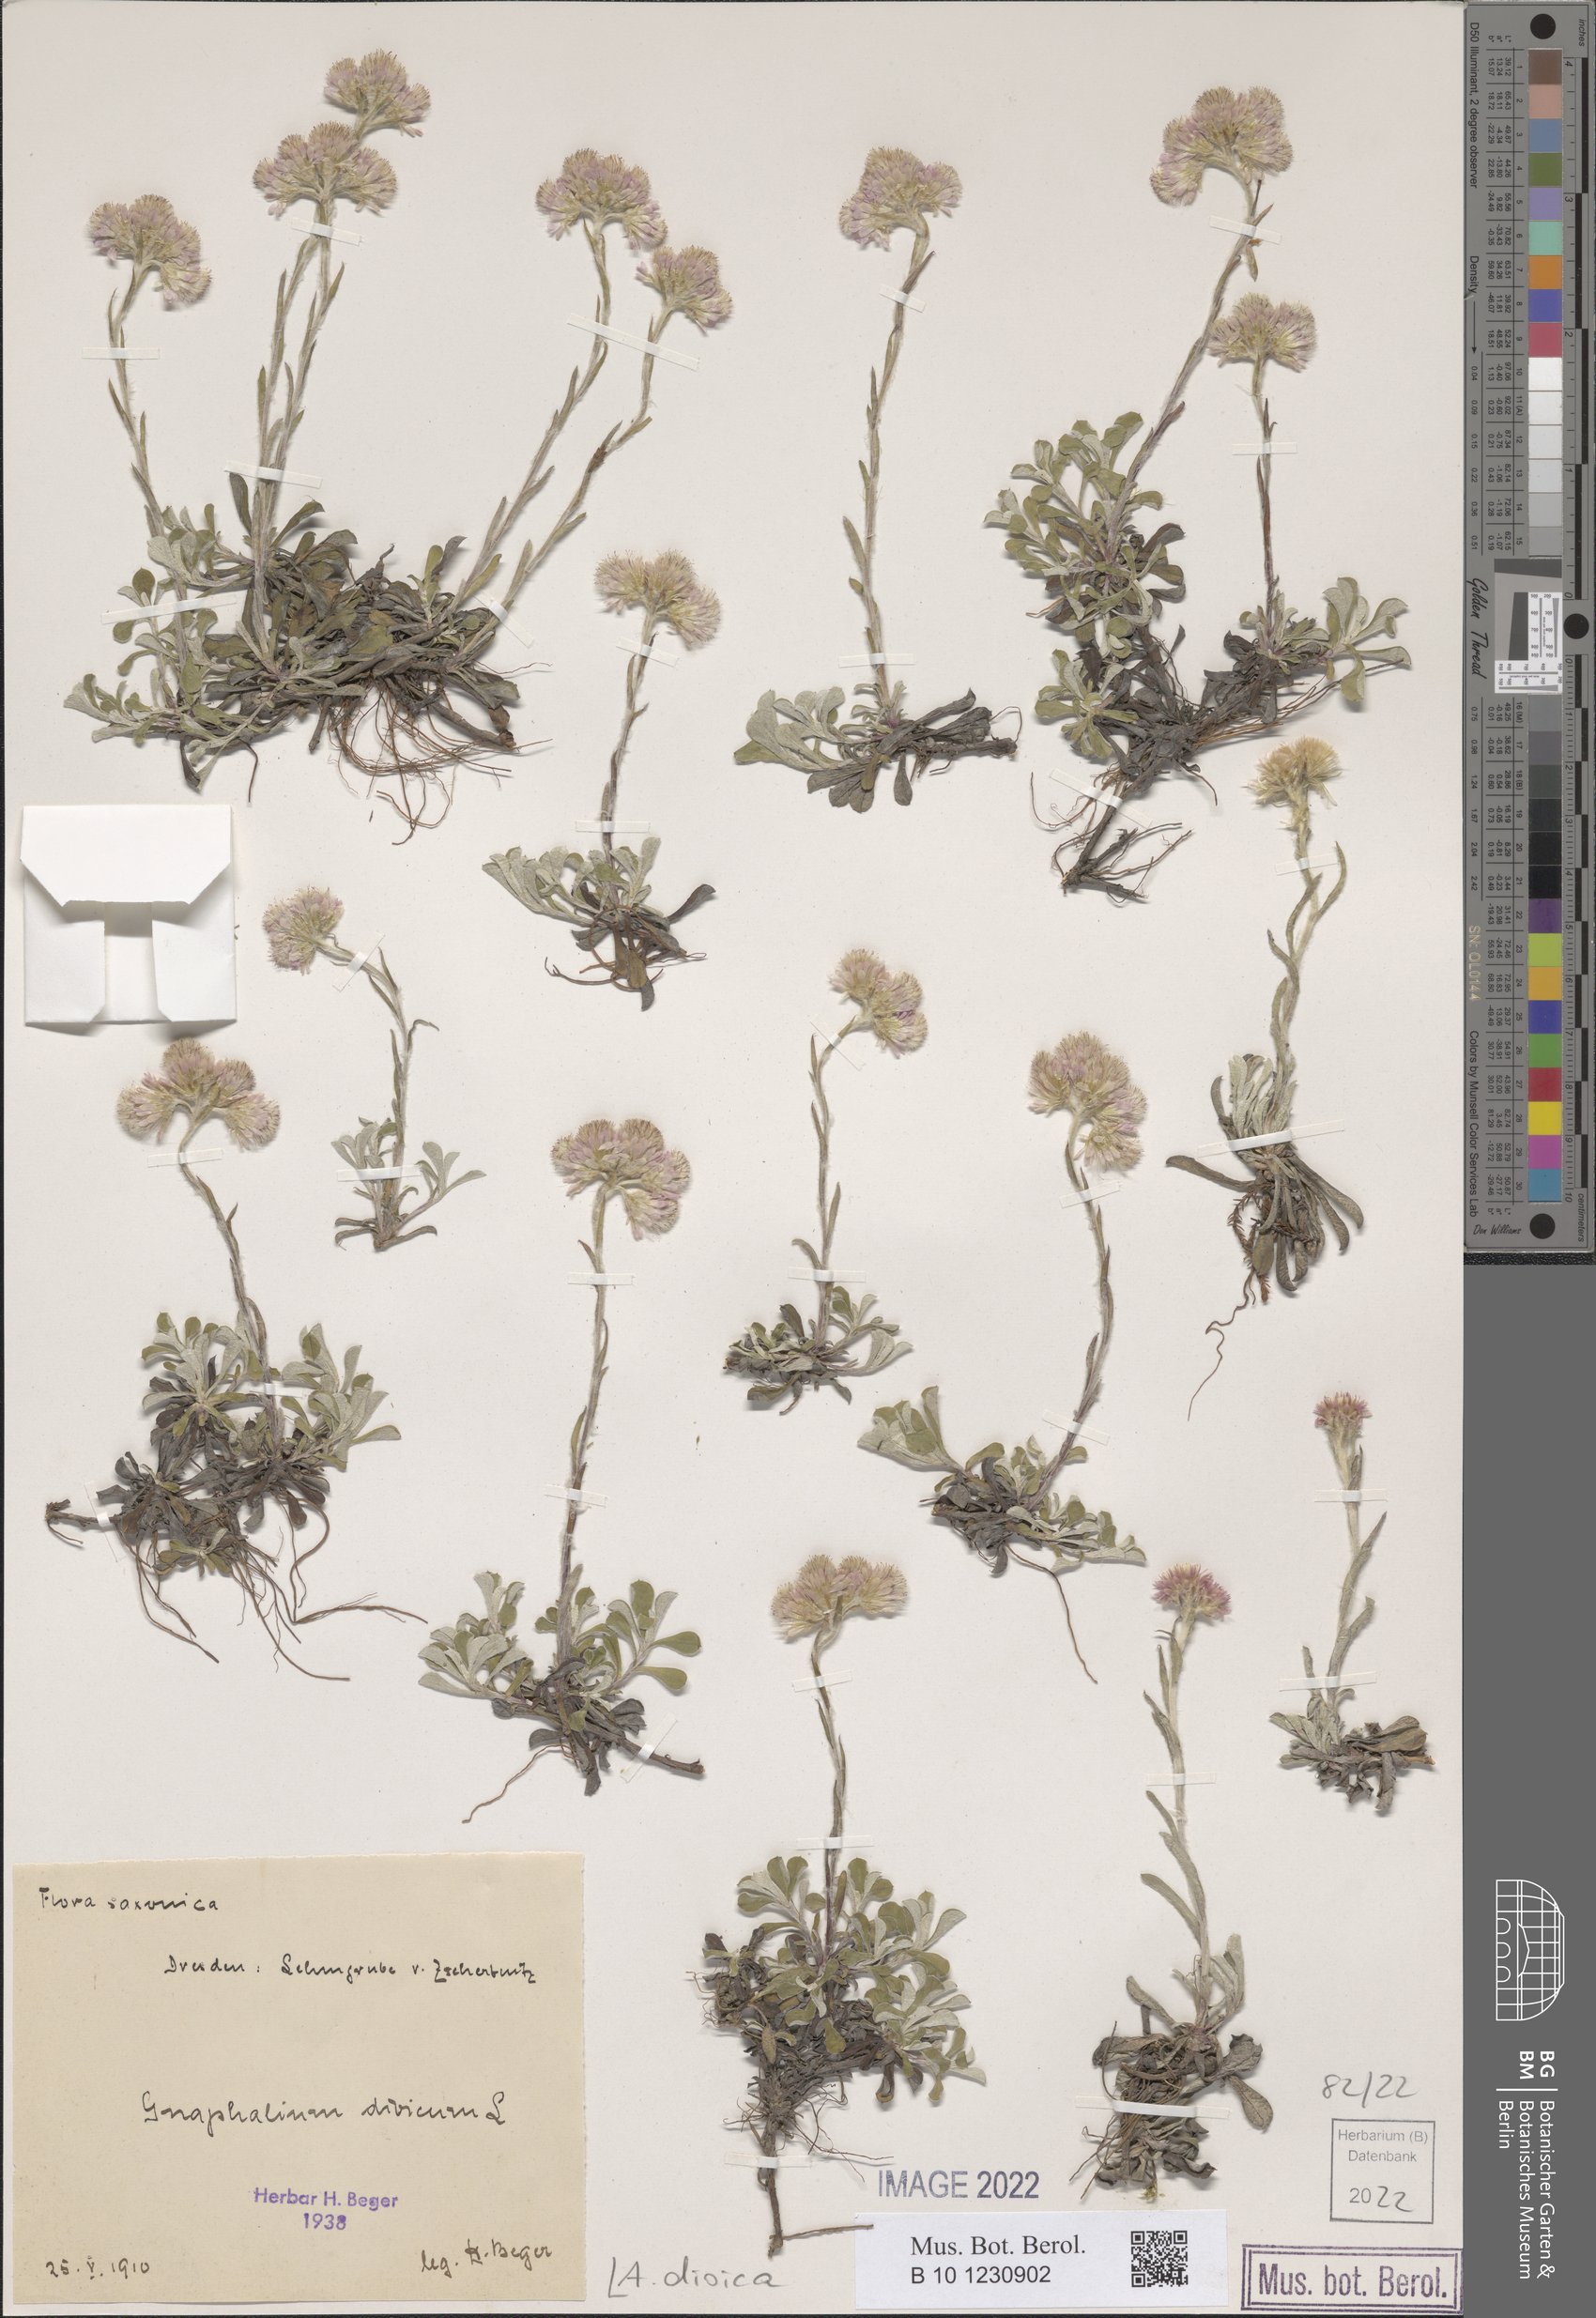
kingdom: Plantae
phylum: Tracheophyta
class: Magnoliopsida
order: Asterales
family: Asteraceae
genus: Antennaria
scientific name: Antennaria dioica
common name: Mountain everlasting
